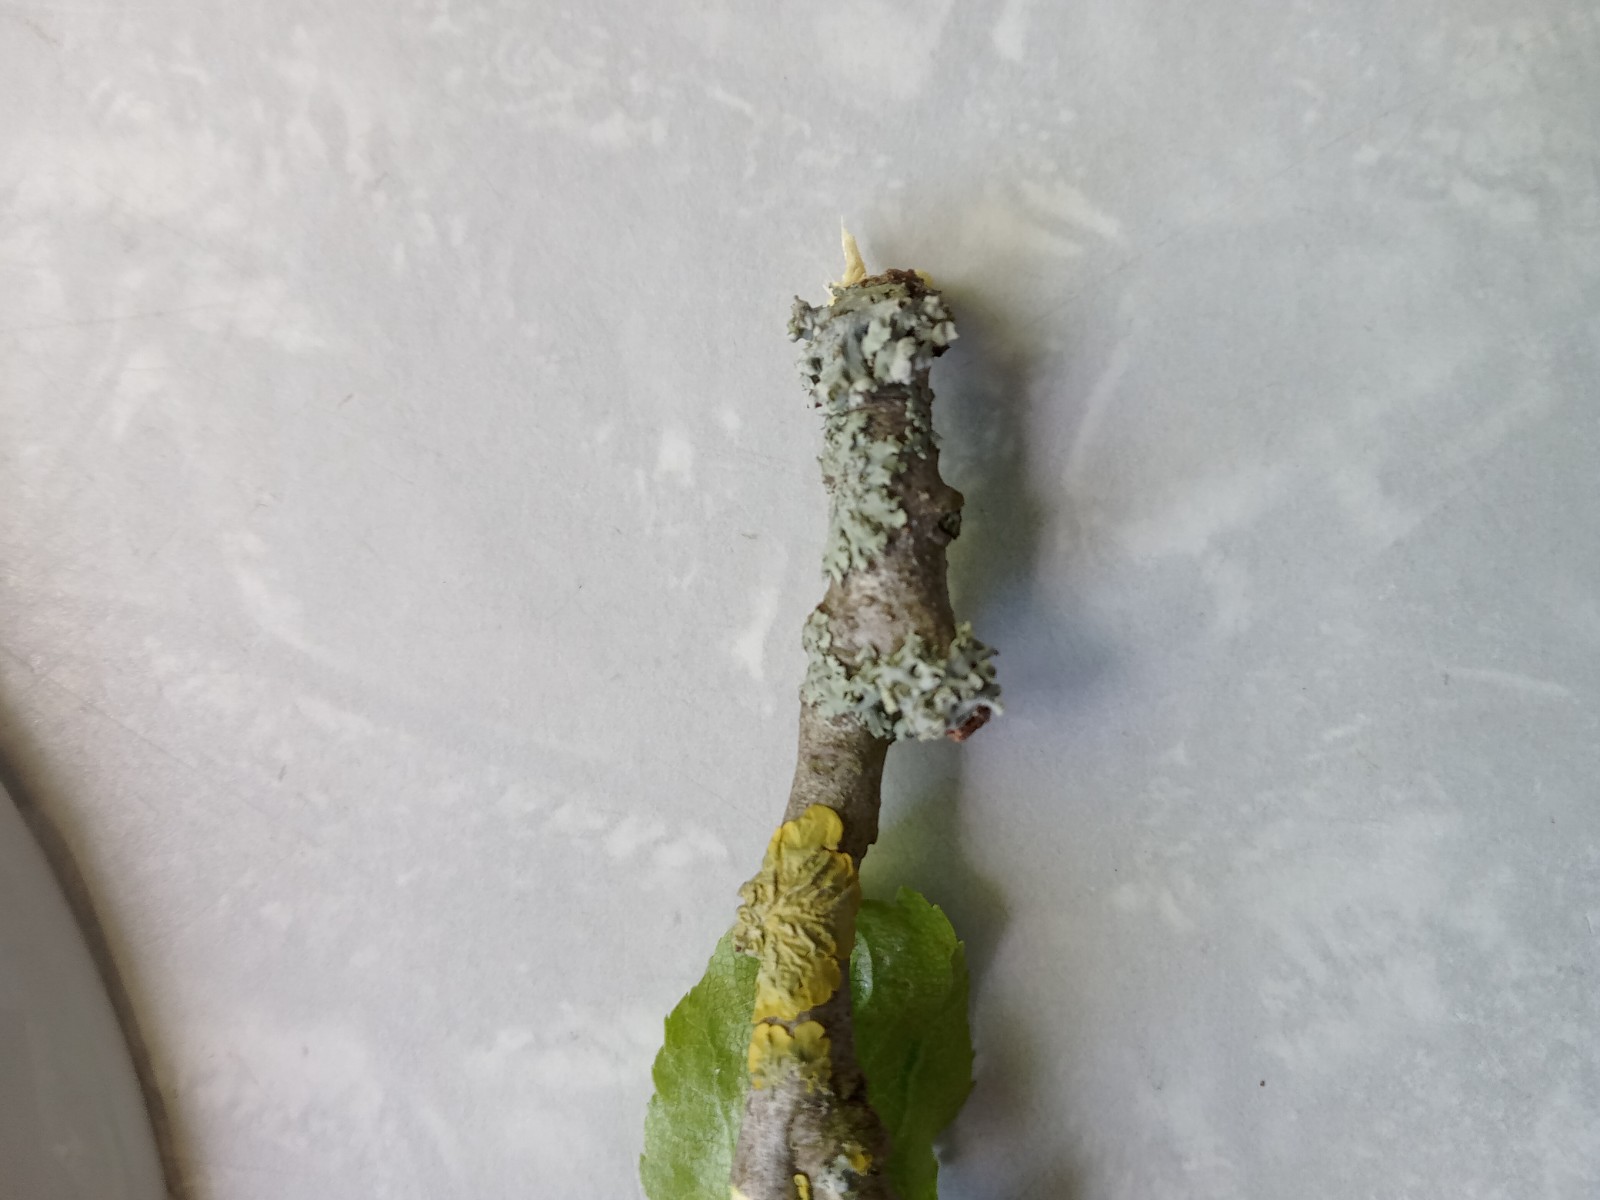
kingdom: Fungi
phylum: Ascomycota
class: Lecanoromycetes
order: Caliciales
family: Physciaceae
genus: Physcia
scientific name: Physcia adscendens
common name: hætte-rosetlav
